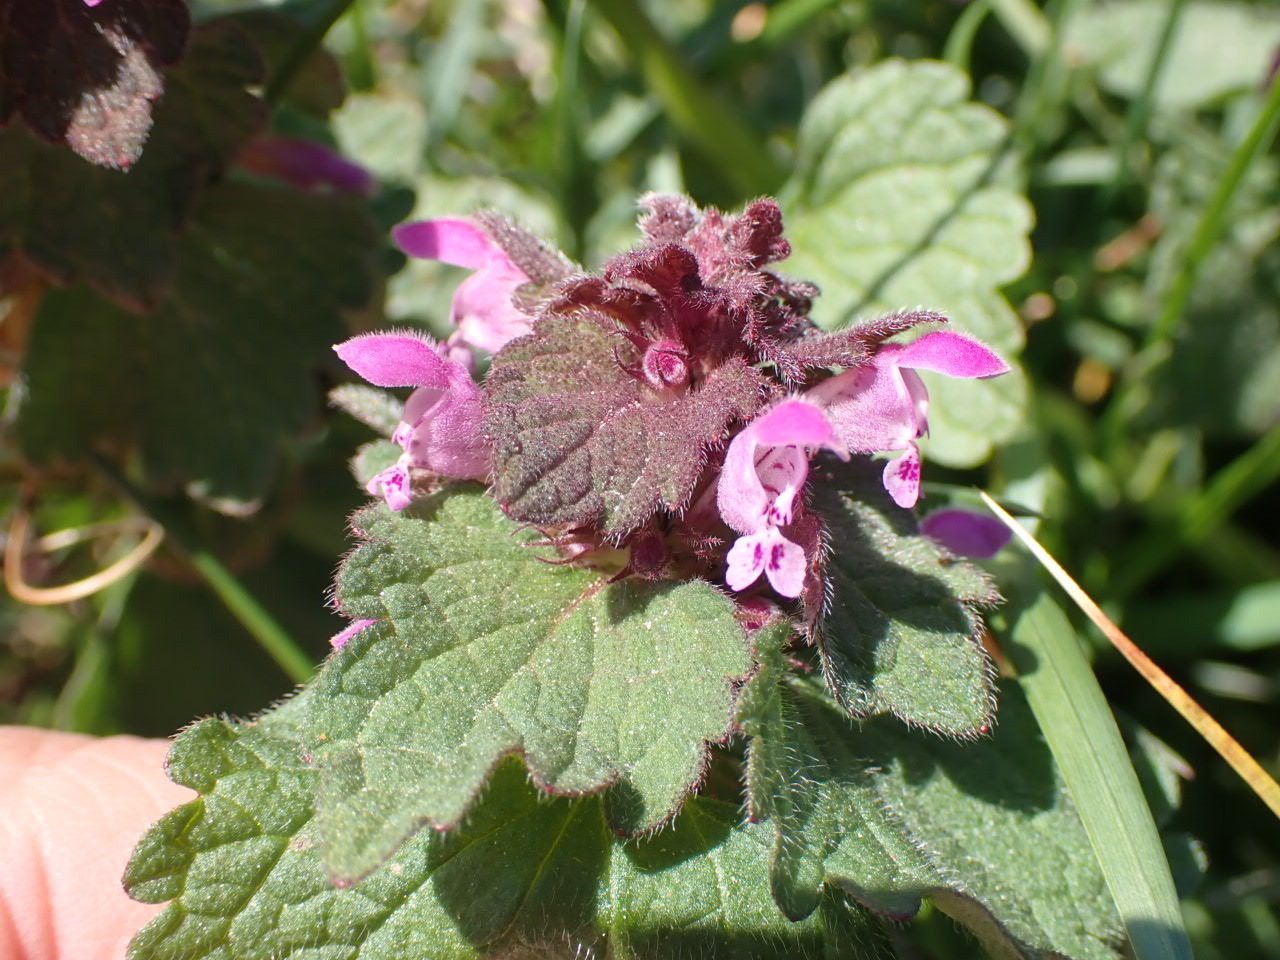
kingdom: Plantae
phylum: Tracheophyta
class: Magnoliopsida
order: Lamiales
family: Lamiaceae
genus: Lamium
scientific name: Lamium purpureum
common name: Rød tvetand
